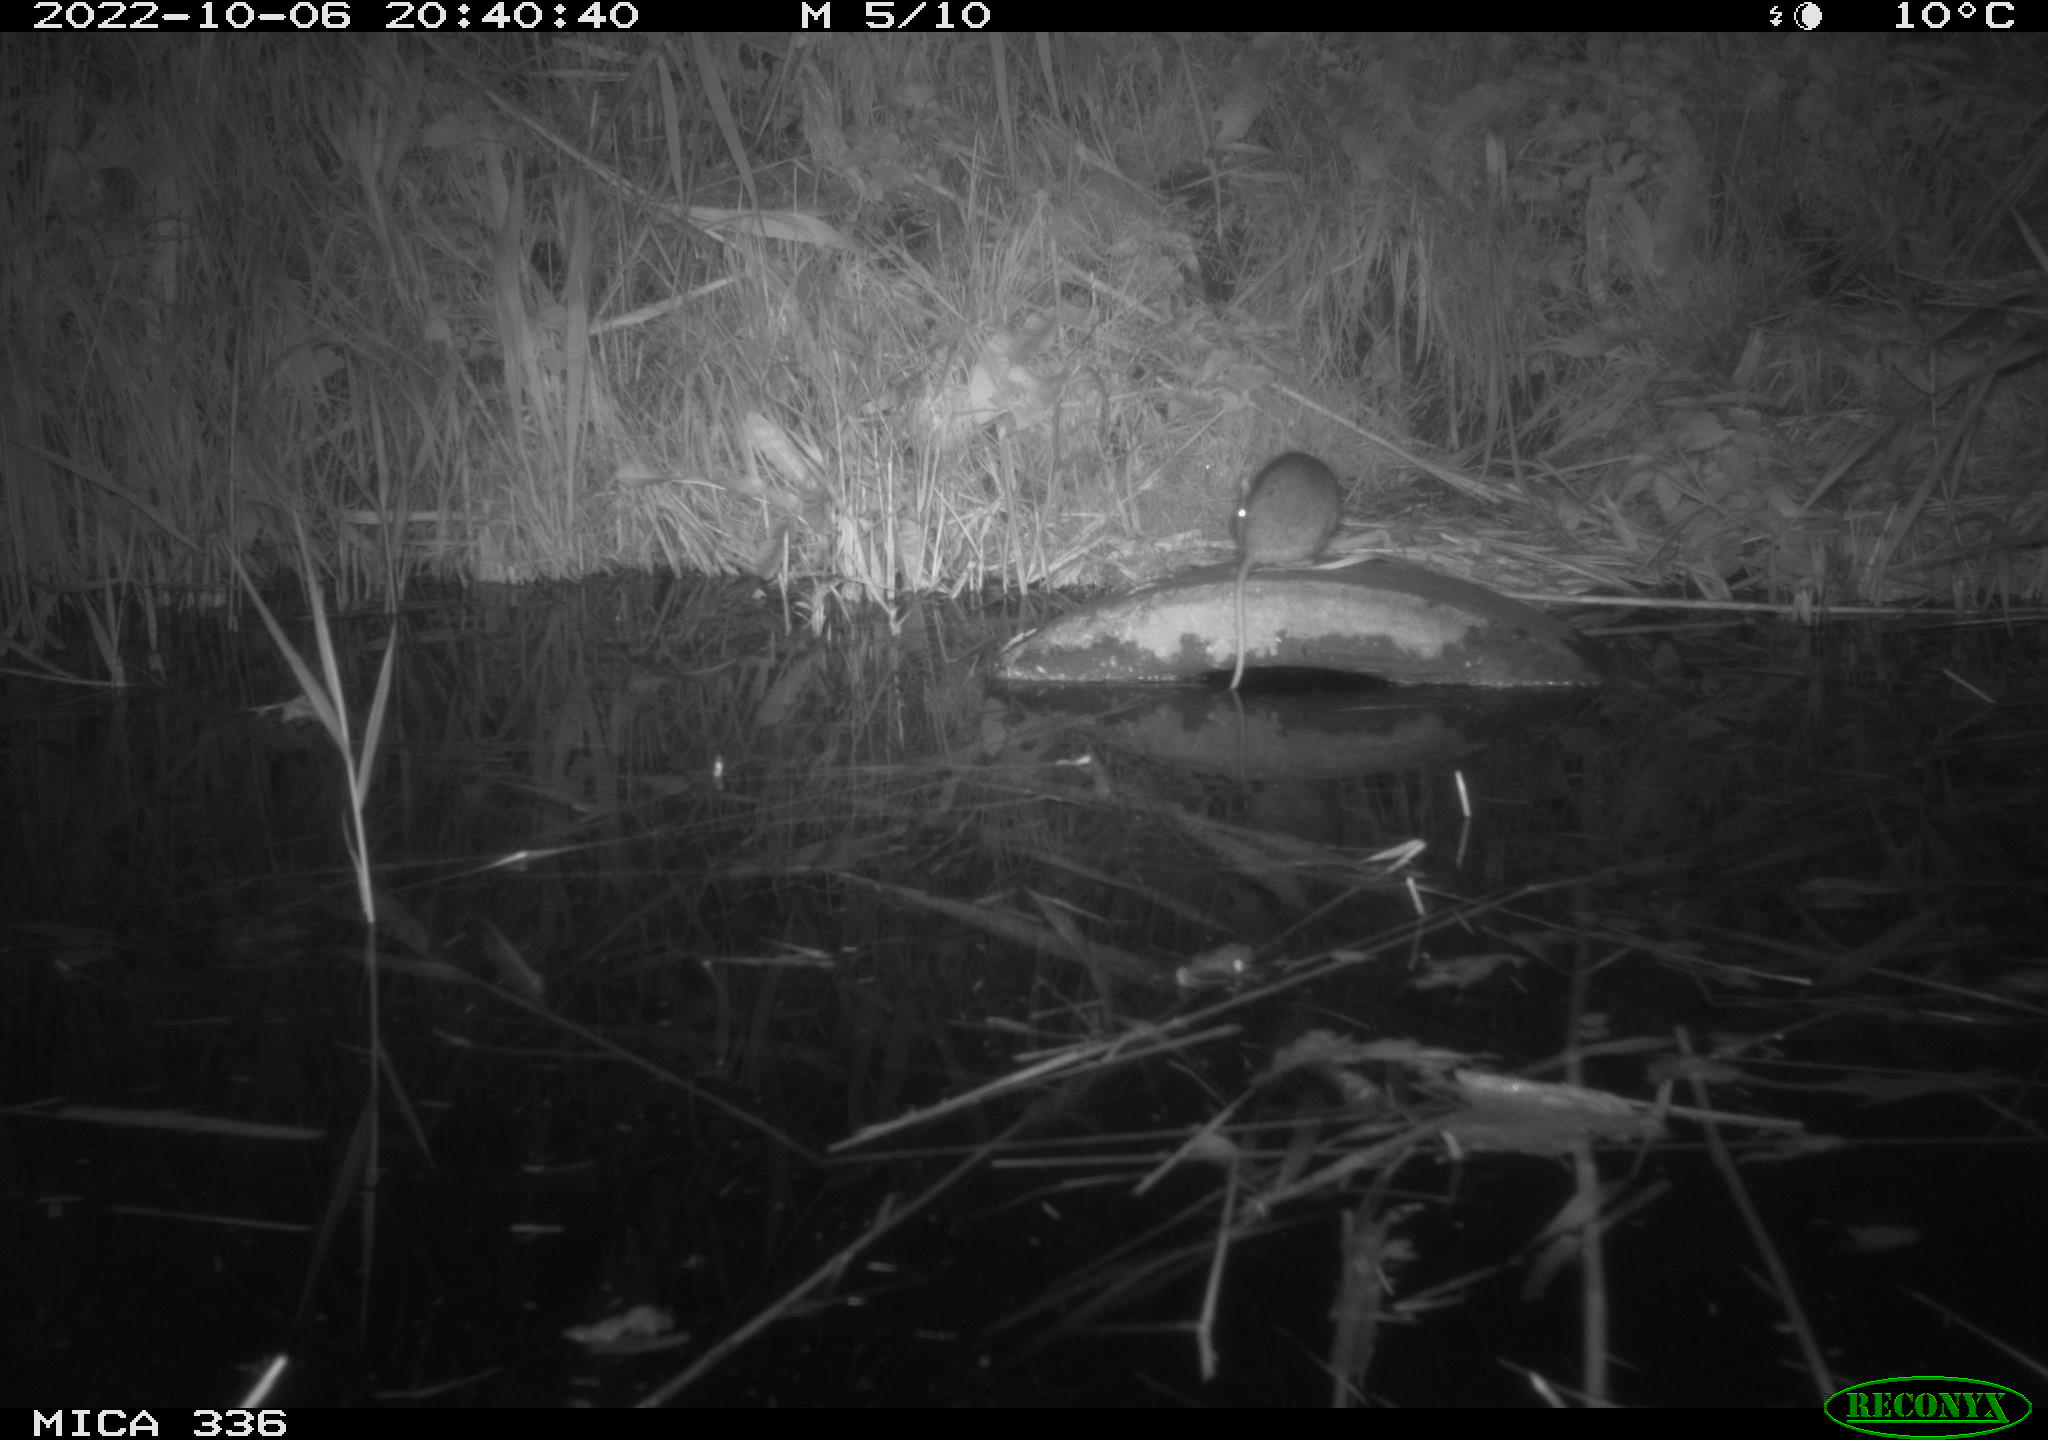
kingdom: Animalia
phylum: Chordata
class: Mammalia
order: Rodentia
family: Muridae
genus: Rattus
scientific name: Rattus norvegicus
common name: Brown rat
